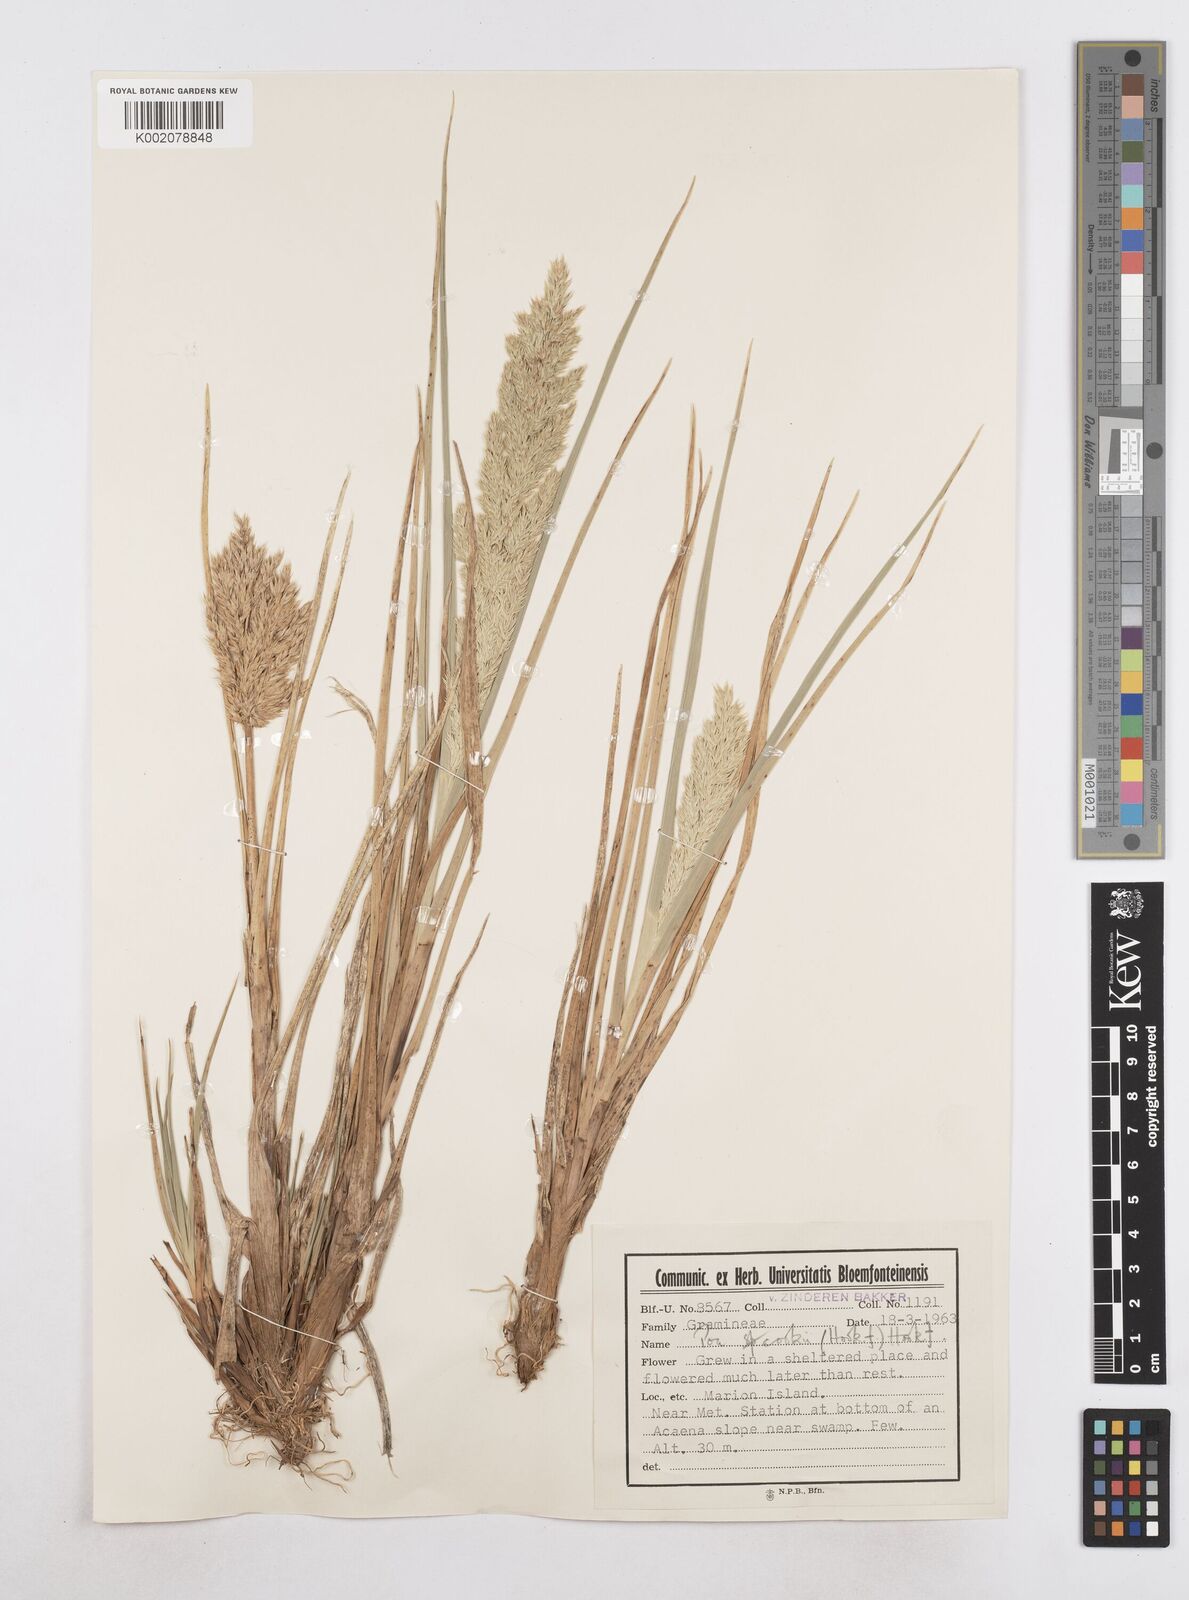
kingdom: Plantae
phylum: Tracheophyta
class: Liliopsida
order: Poales
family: Poaceae
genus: Poa
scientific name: Poa cookii
